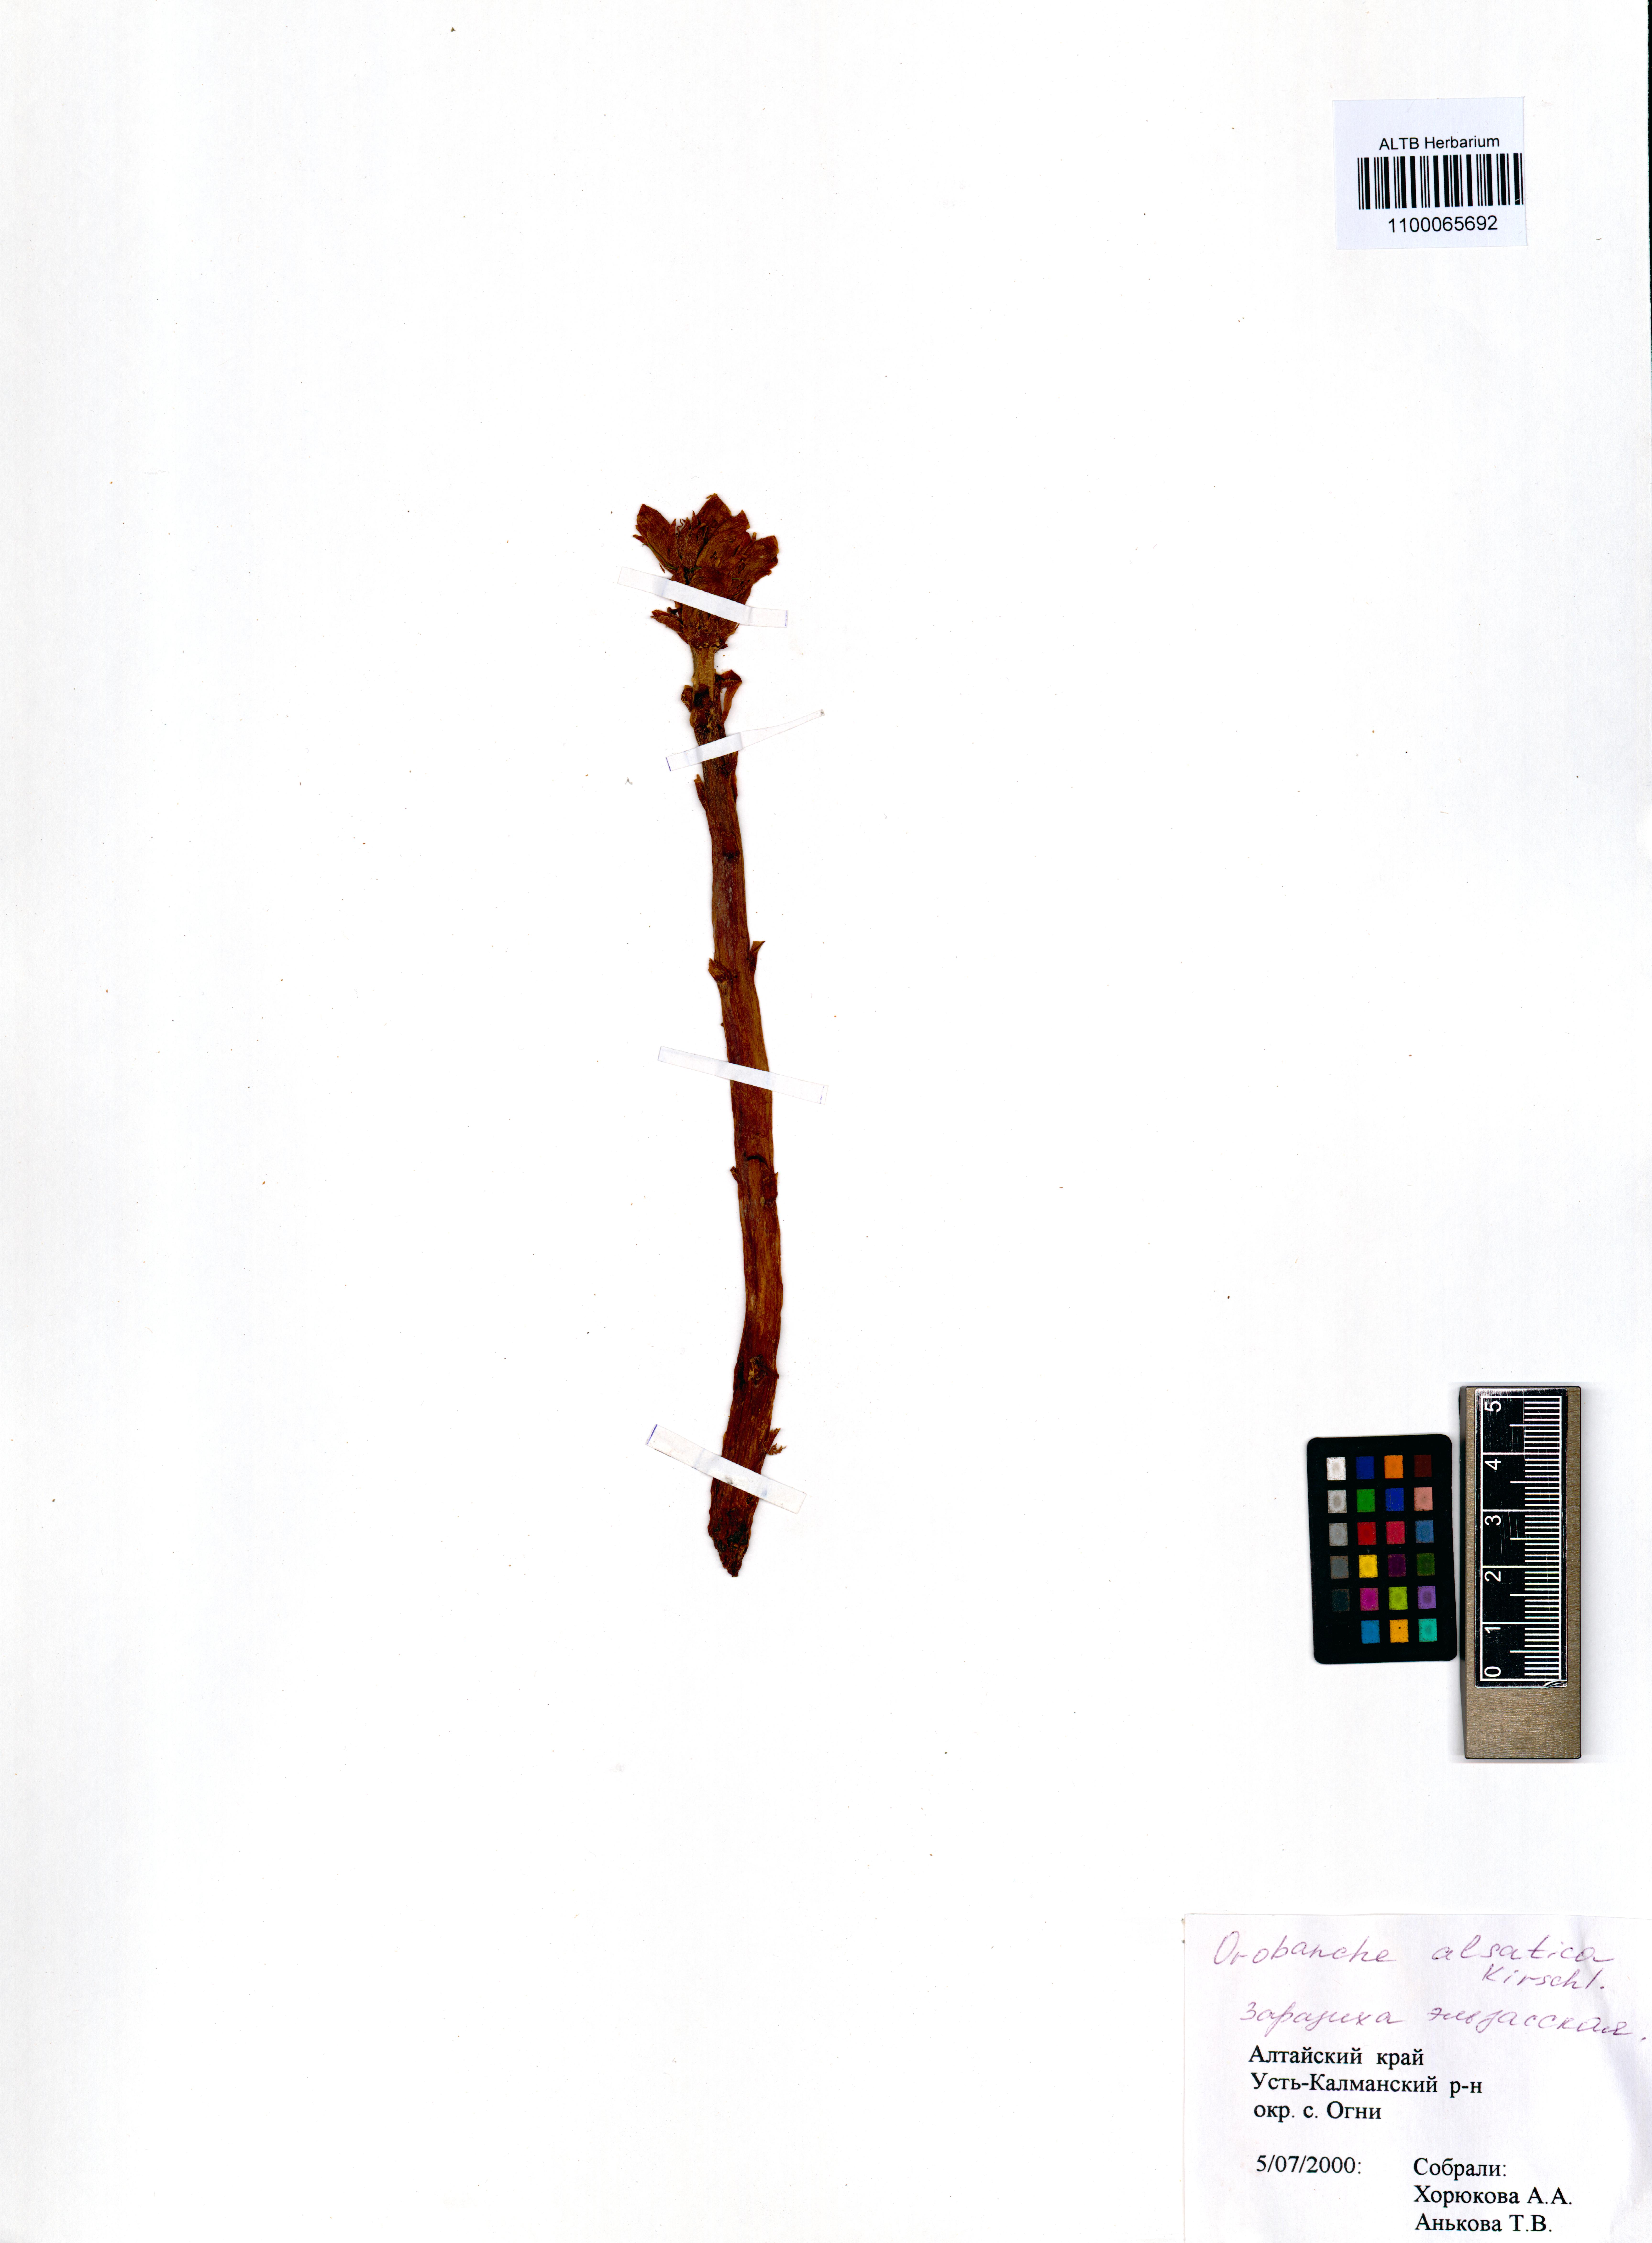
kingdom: Plantae
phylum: Tracheophyta
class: Magnoliopsida
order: Lamiales
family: Orobanchaceae
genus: Orobanche
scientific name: Orobanche alsatica
